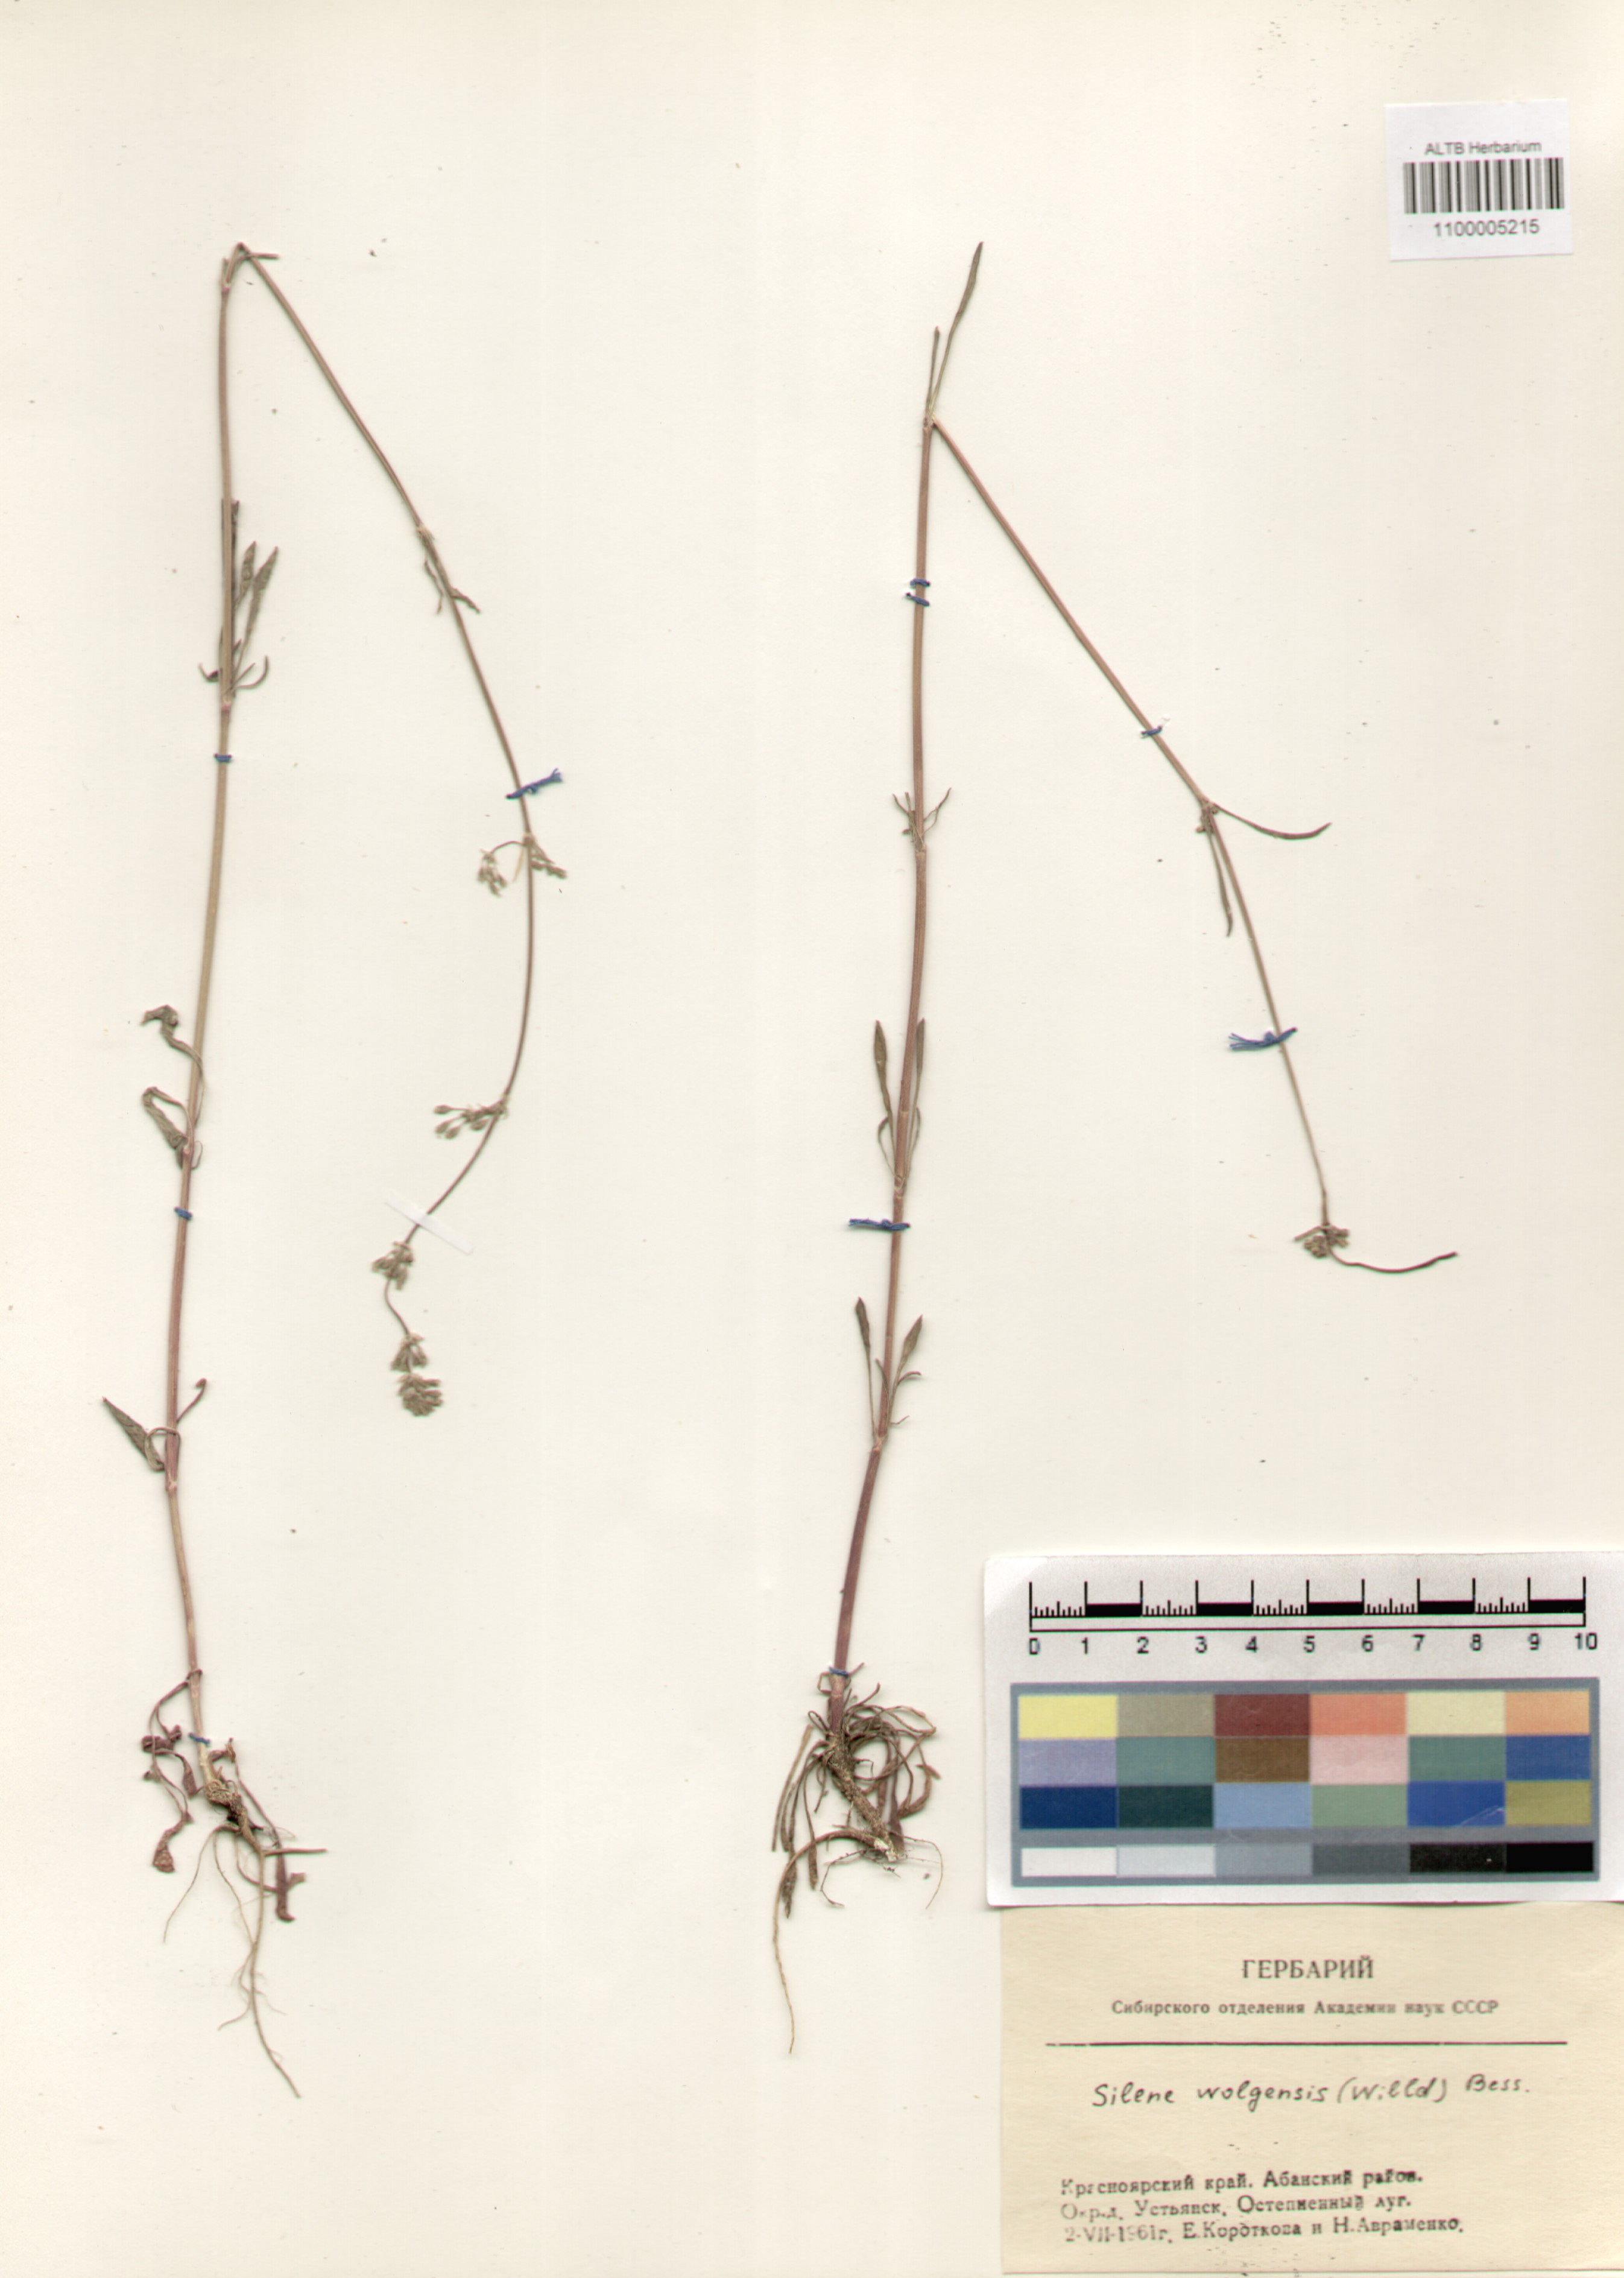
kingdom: Plantae
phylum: Tracheophyta
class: Magnoliopsida
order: Caryophyllales
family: Caryophyllaceae
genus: Silene
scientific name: Silene wolgensis
